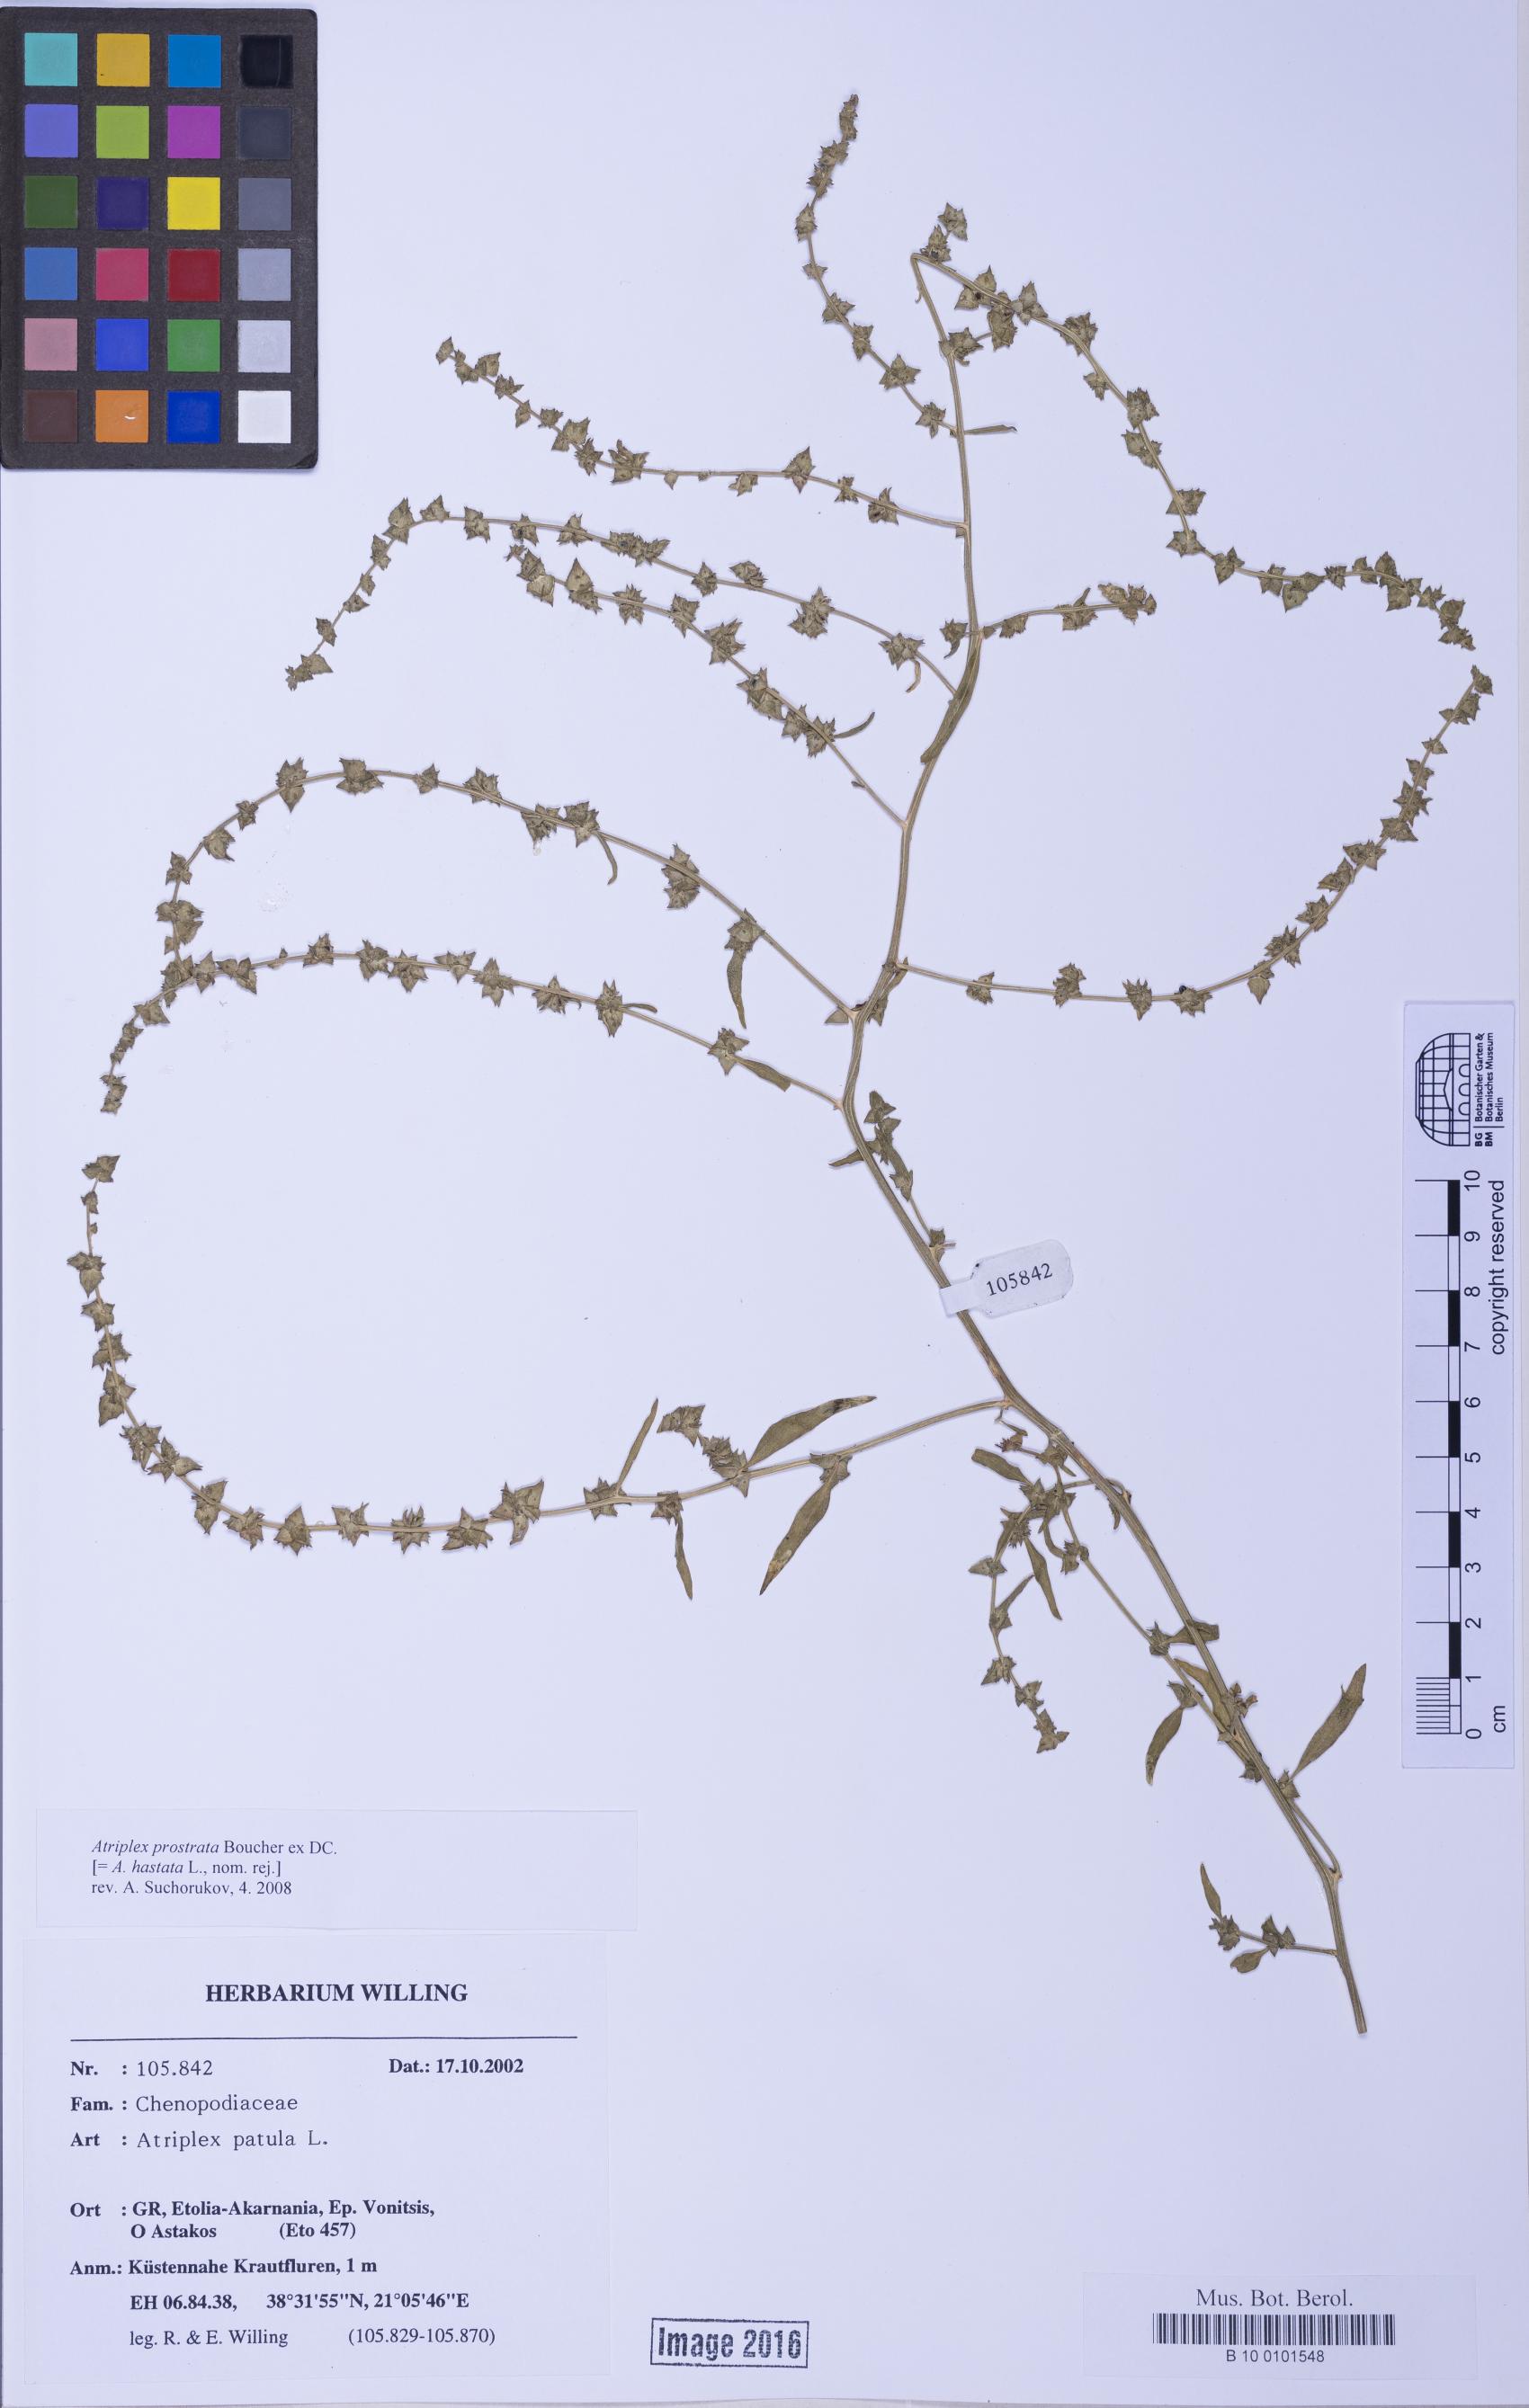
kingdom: Plantae
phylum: Tracheophyta
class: Magnoliopsida
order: Caryophyllales
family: Amaranthaceae
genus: Atriplex
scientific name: Atriplex prostrata
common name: Spear-leaved orache
